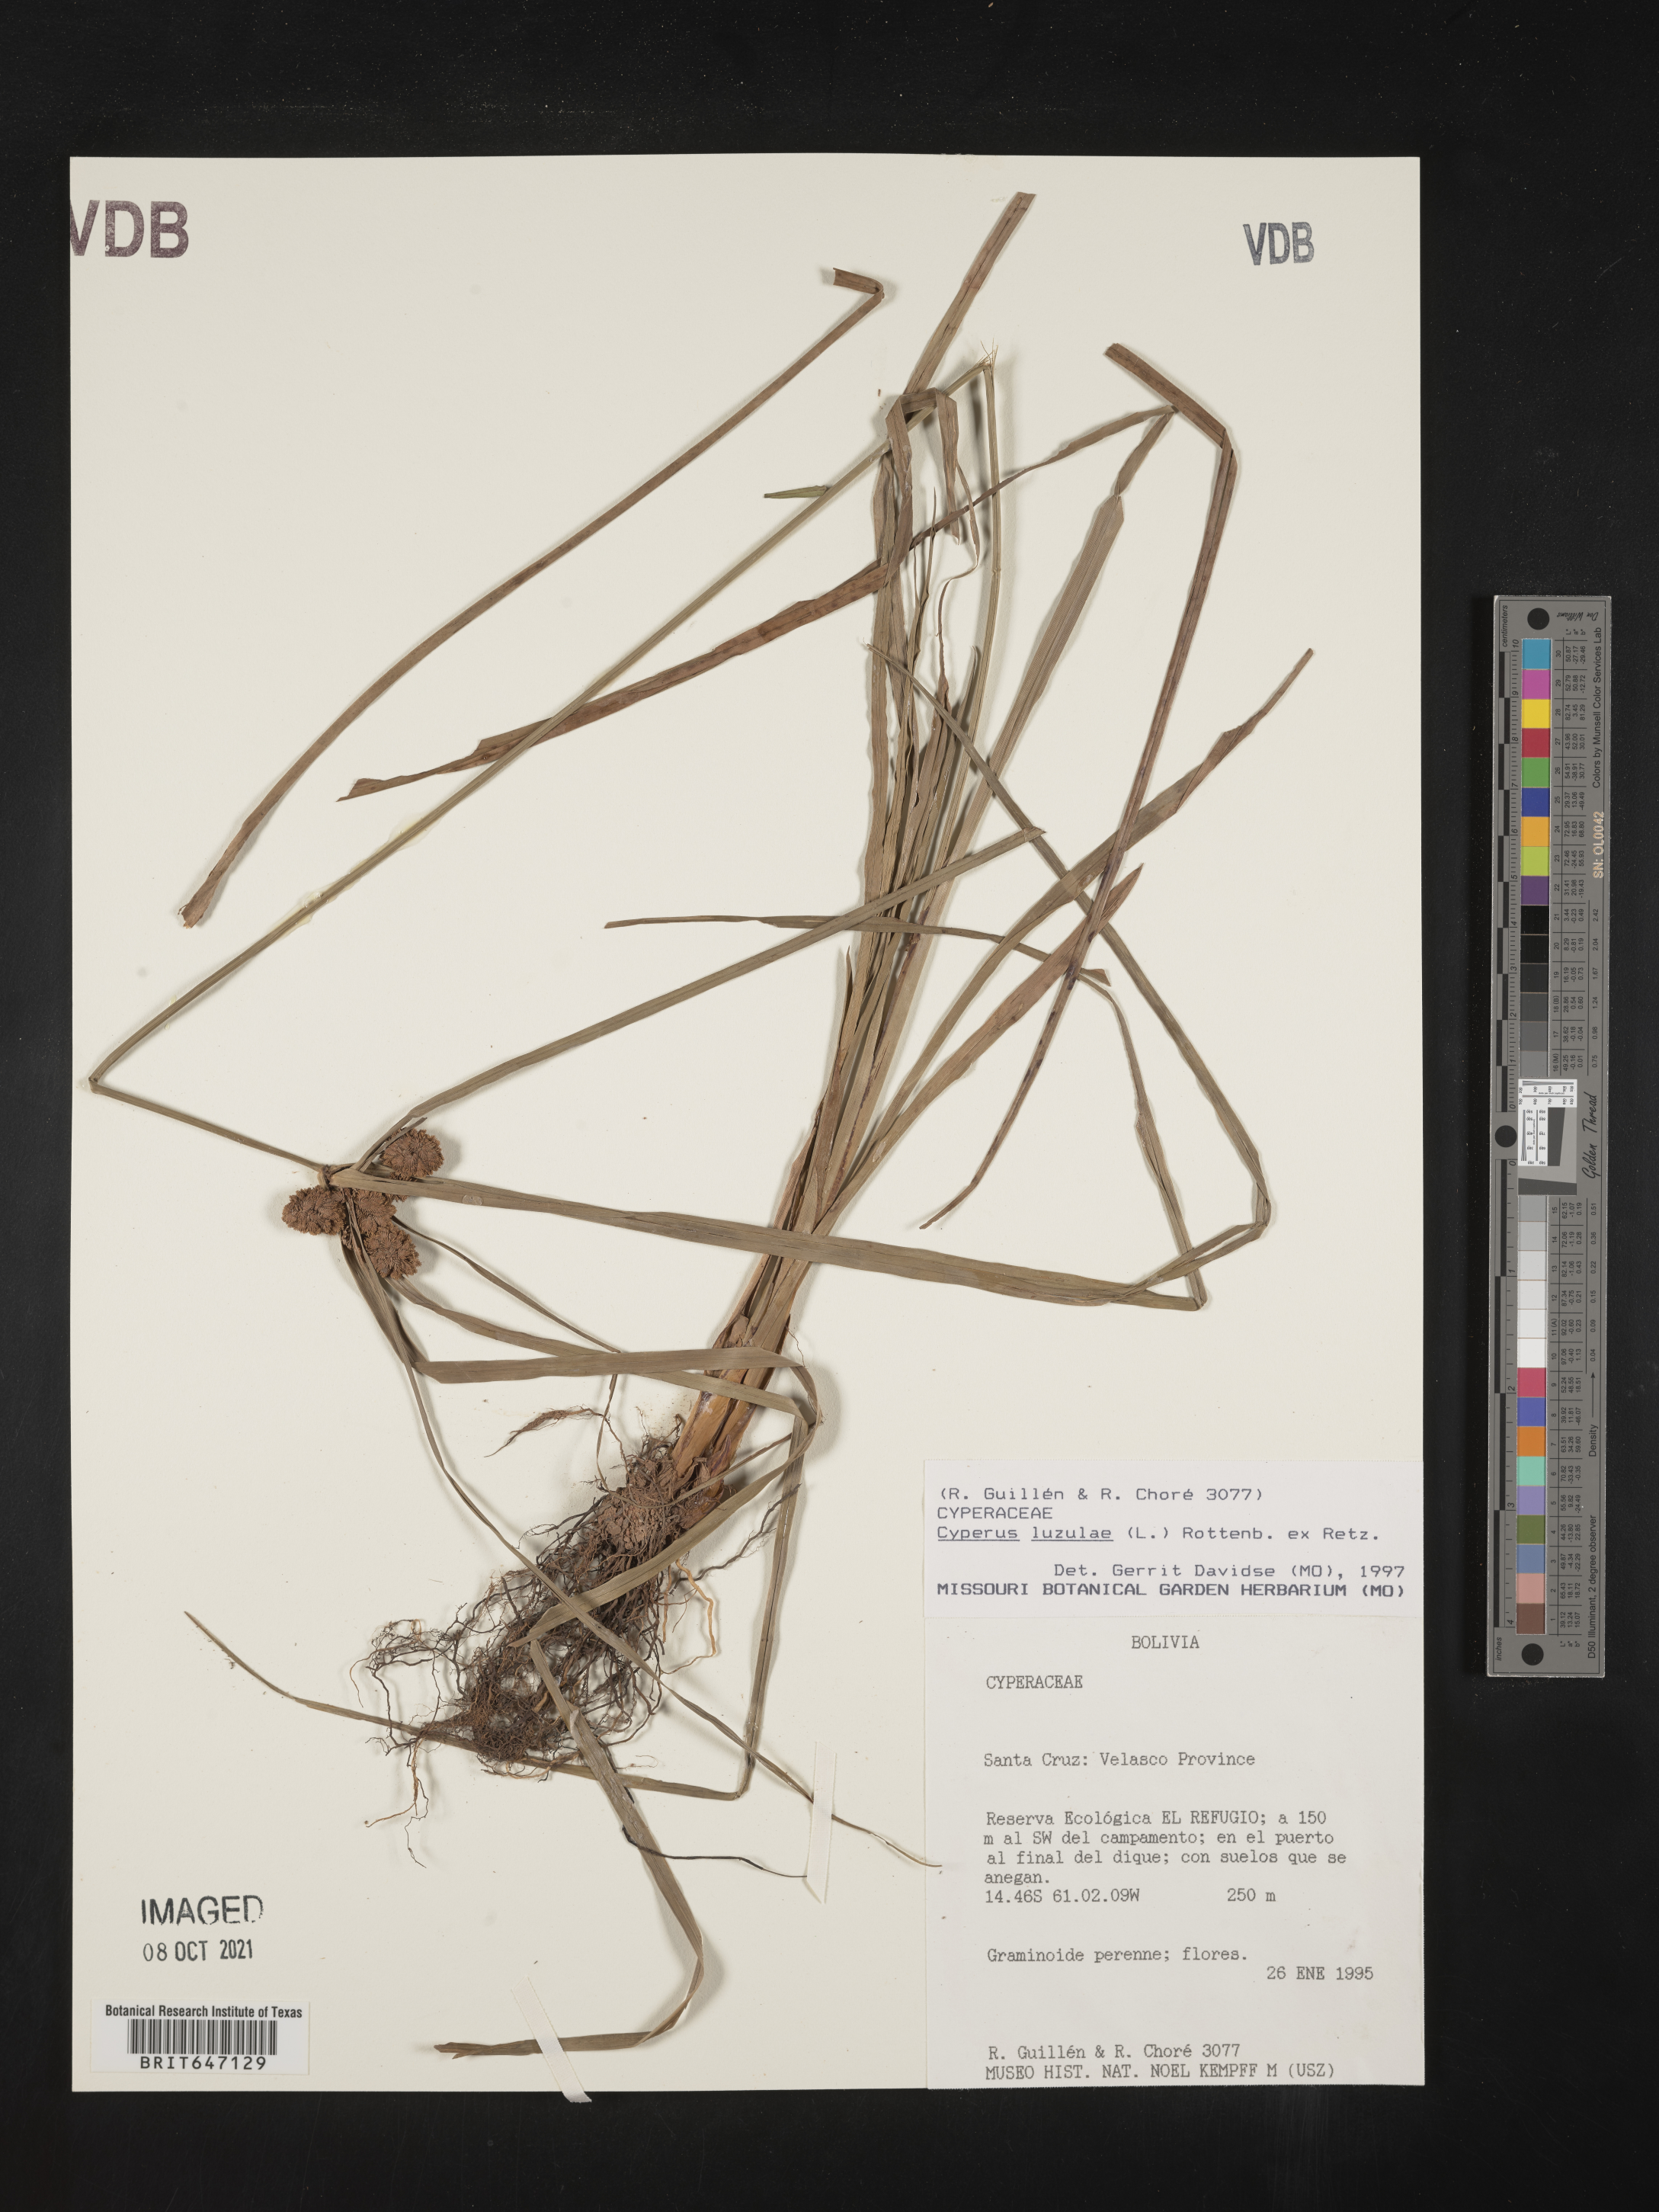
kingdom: Plantae
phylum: Tracheophyta
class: Liliopsida
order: Poales
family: Cyperaceae
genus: Cyperus
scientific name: Cyperus luzulae
